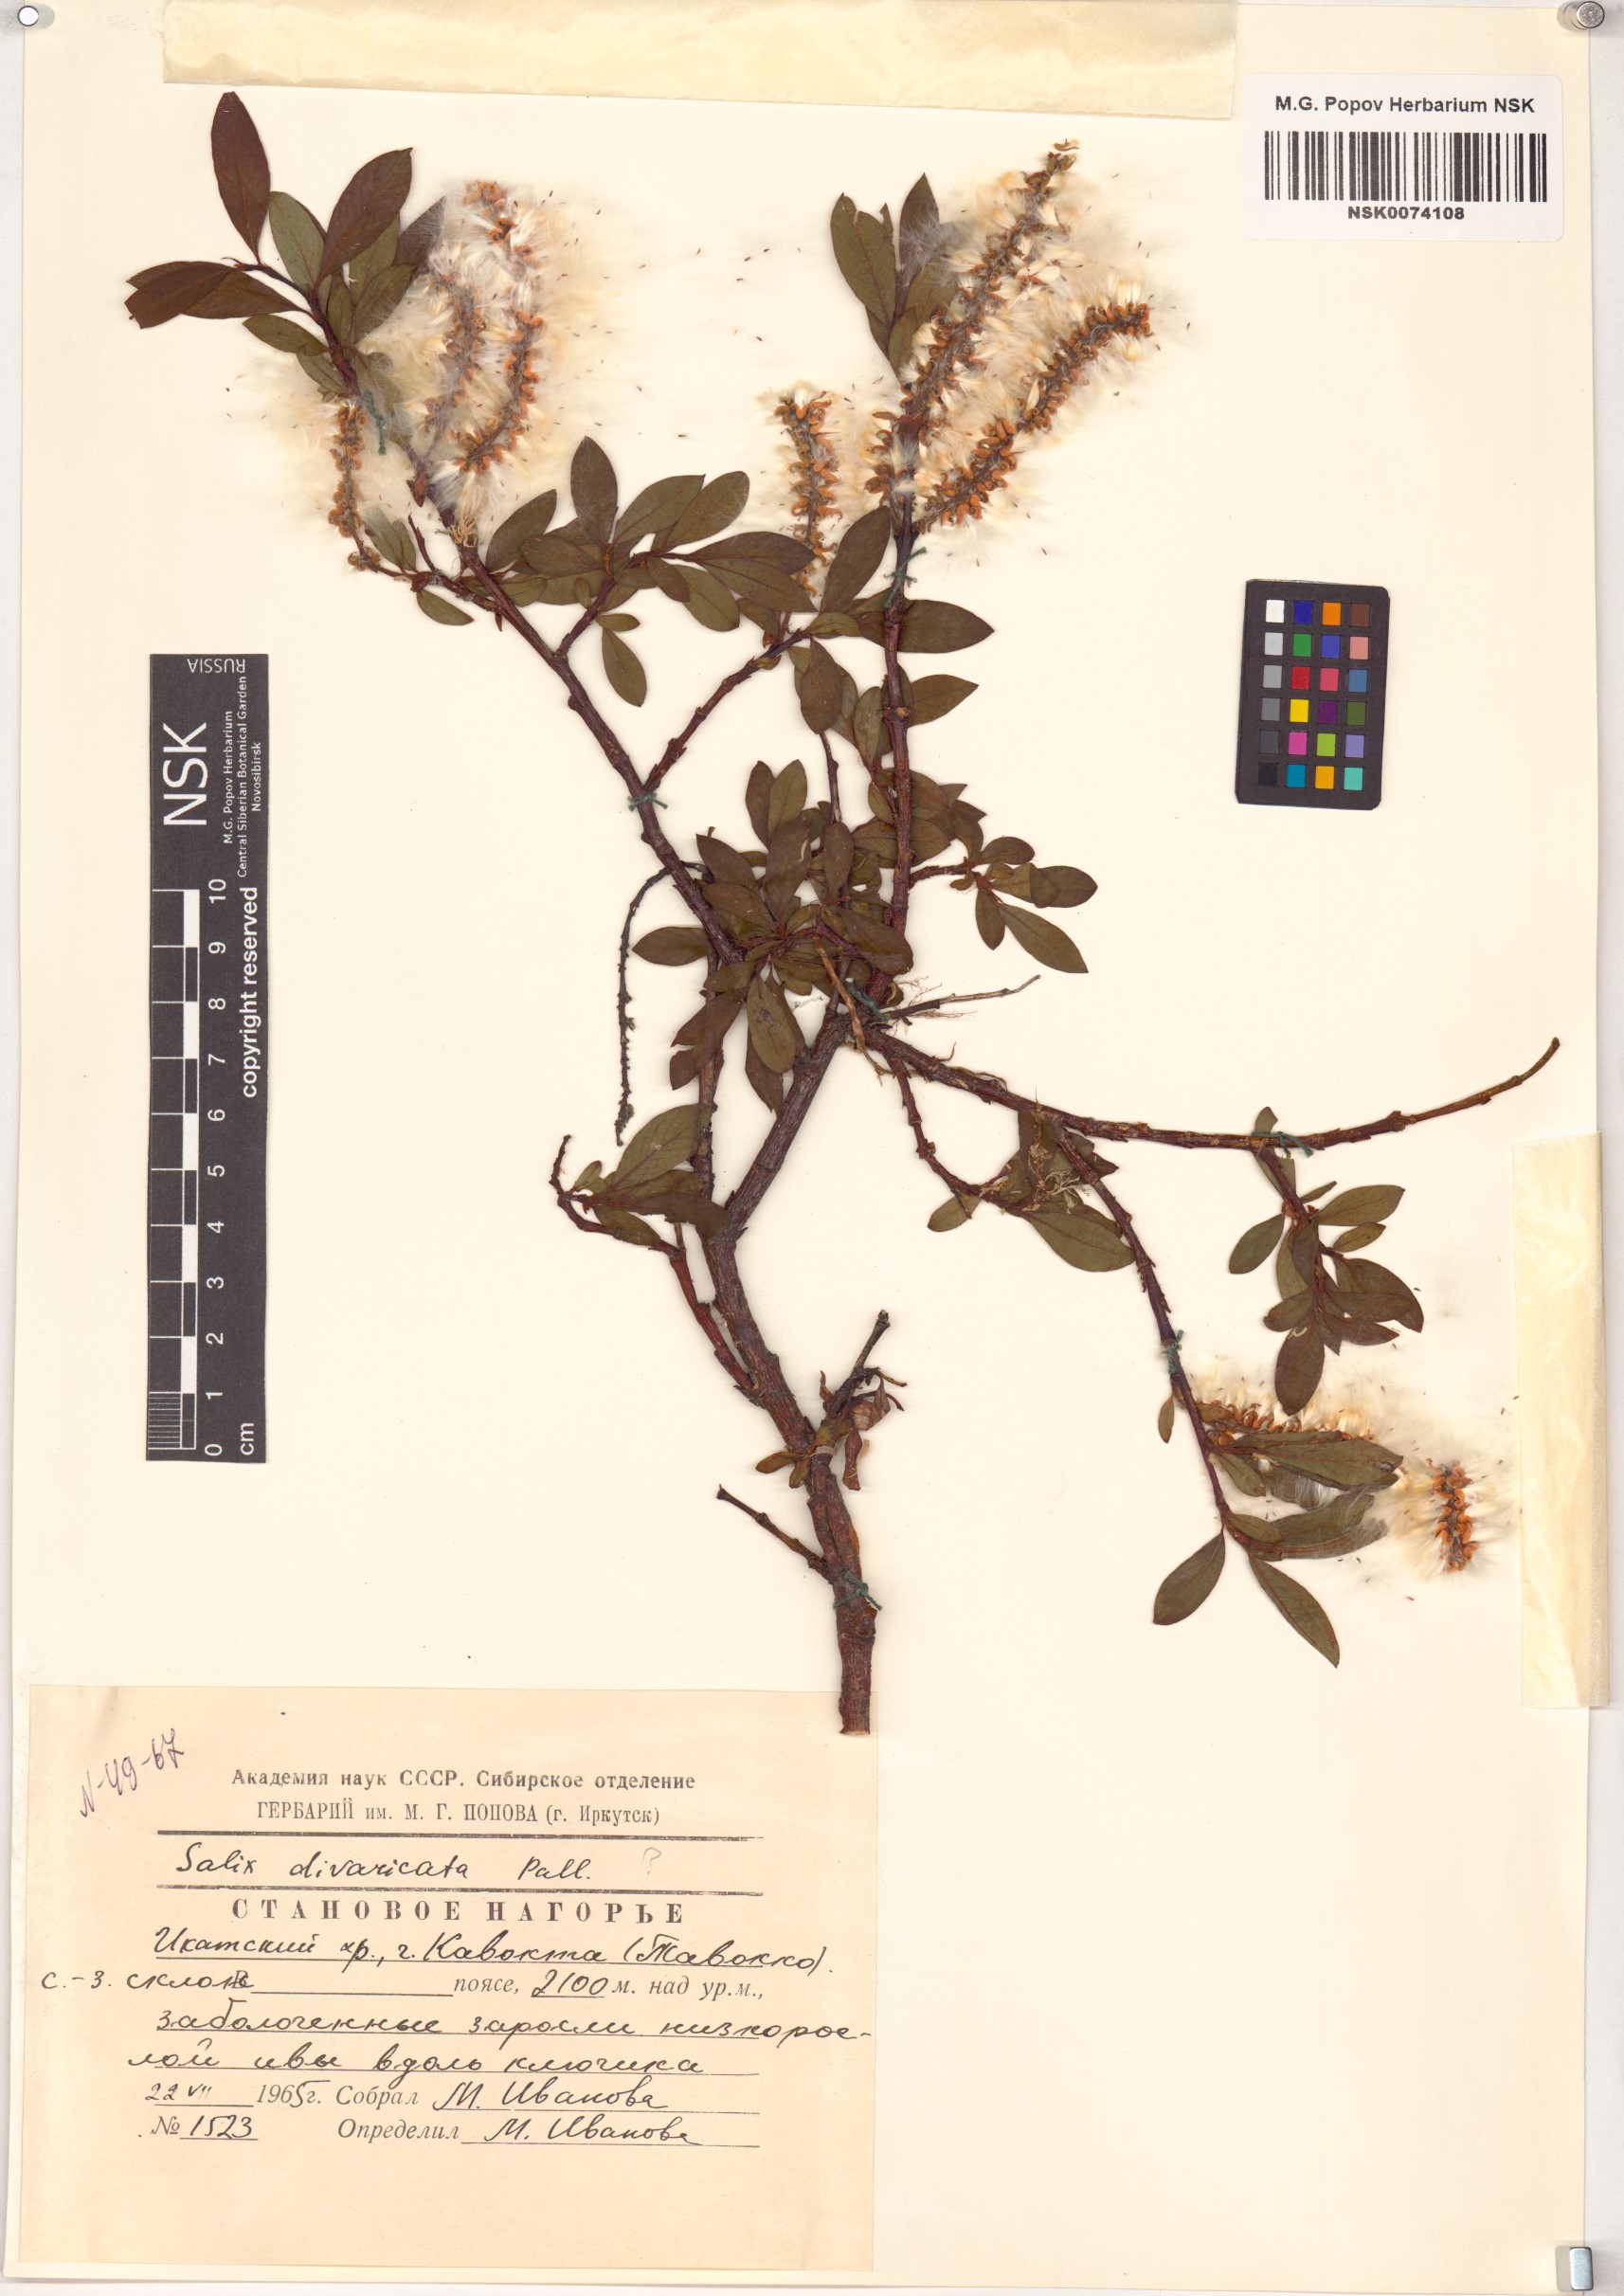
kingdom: Plantae
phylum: Tracheophyta
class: Magnoliopsida
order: Malpighiales
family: Salicaceae
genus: Salix
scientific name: Salix divaricata
